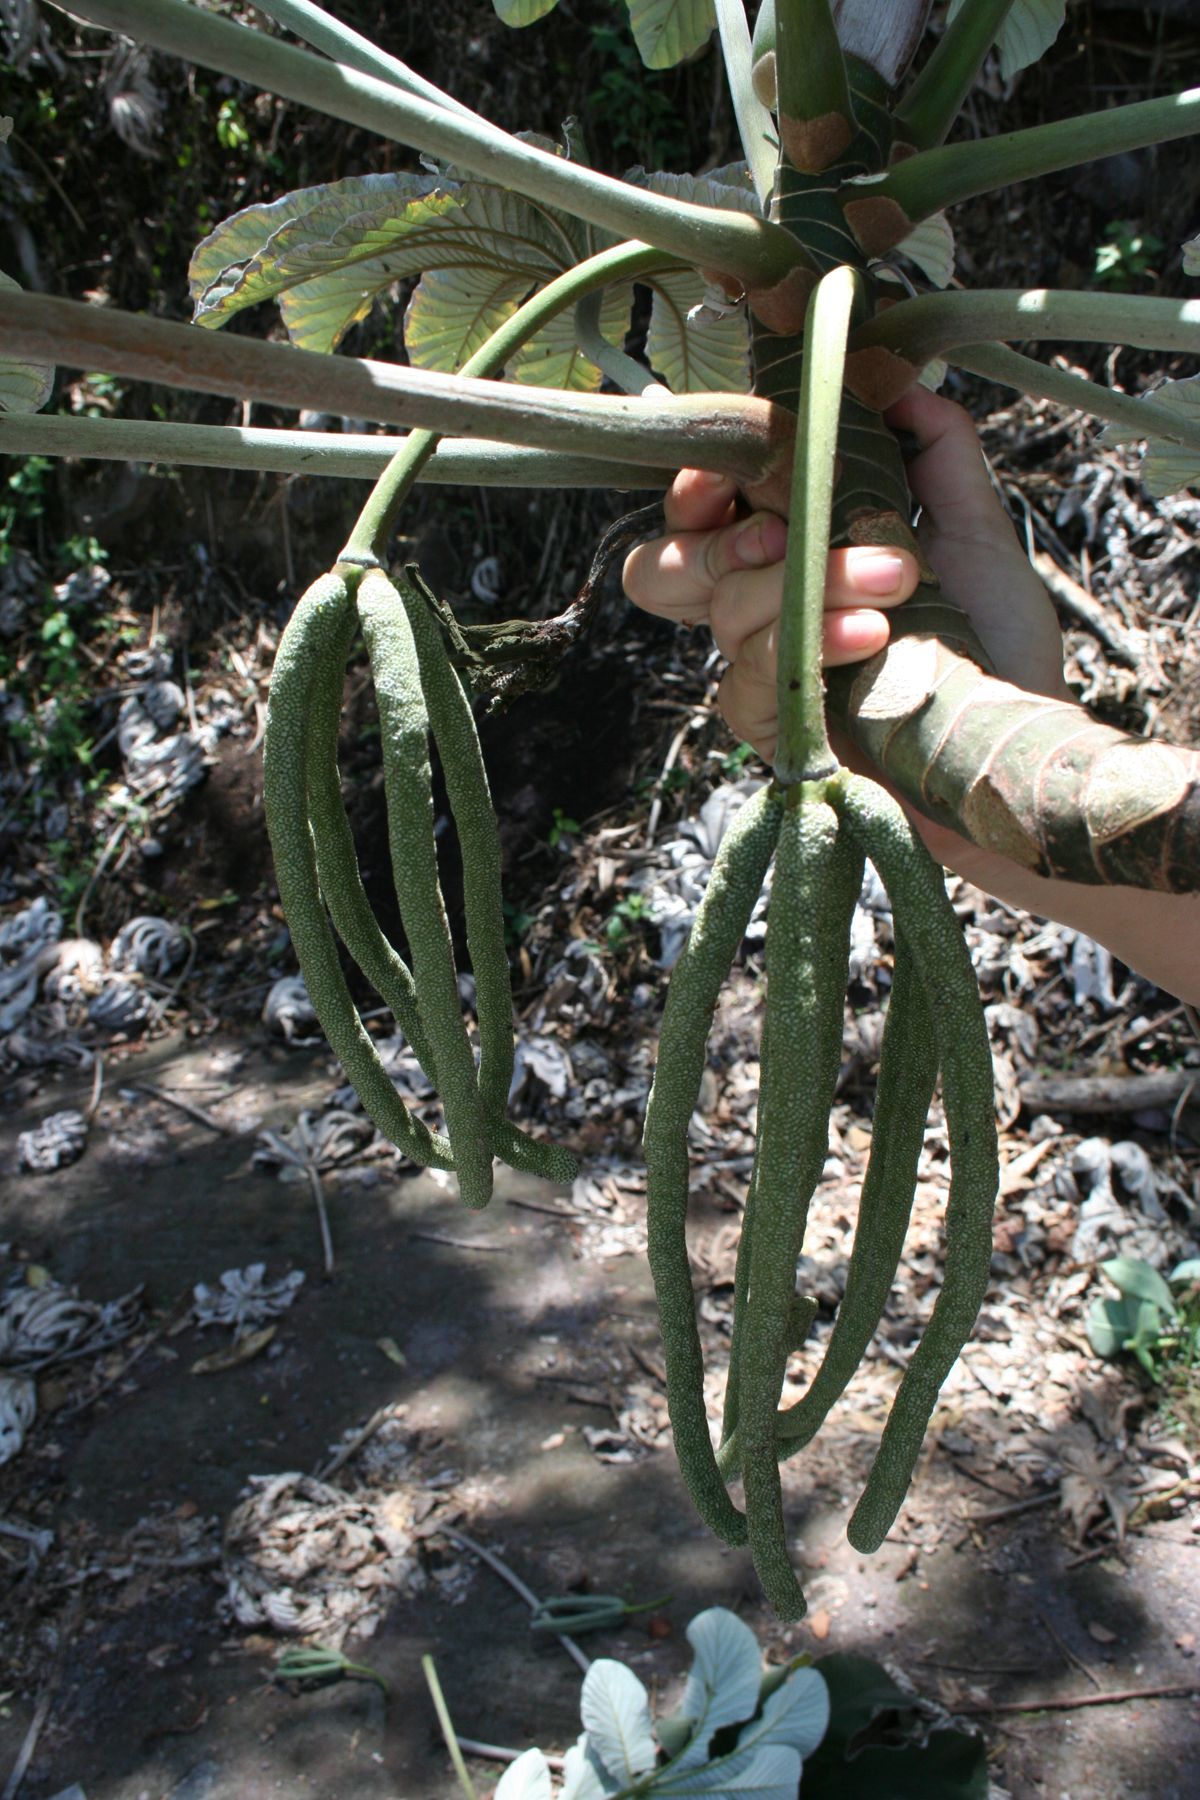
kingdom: Plantae
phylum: Tracheophyta
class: Magnoliopsida
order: Rosales
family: Urticaceae
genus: Cecropia
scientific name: Cecropia obtusifolia
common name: Trumpet tree
